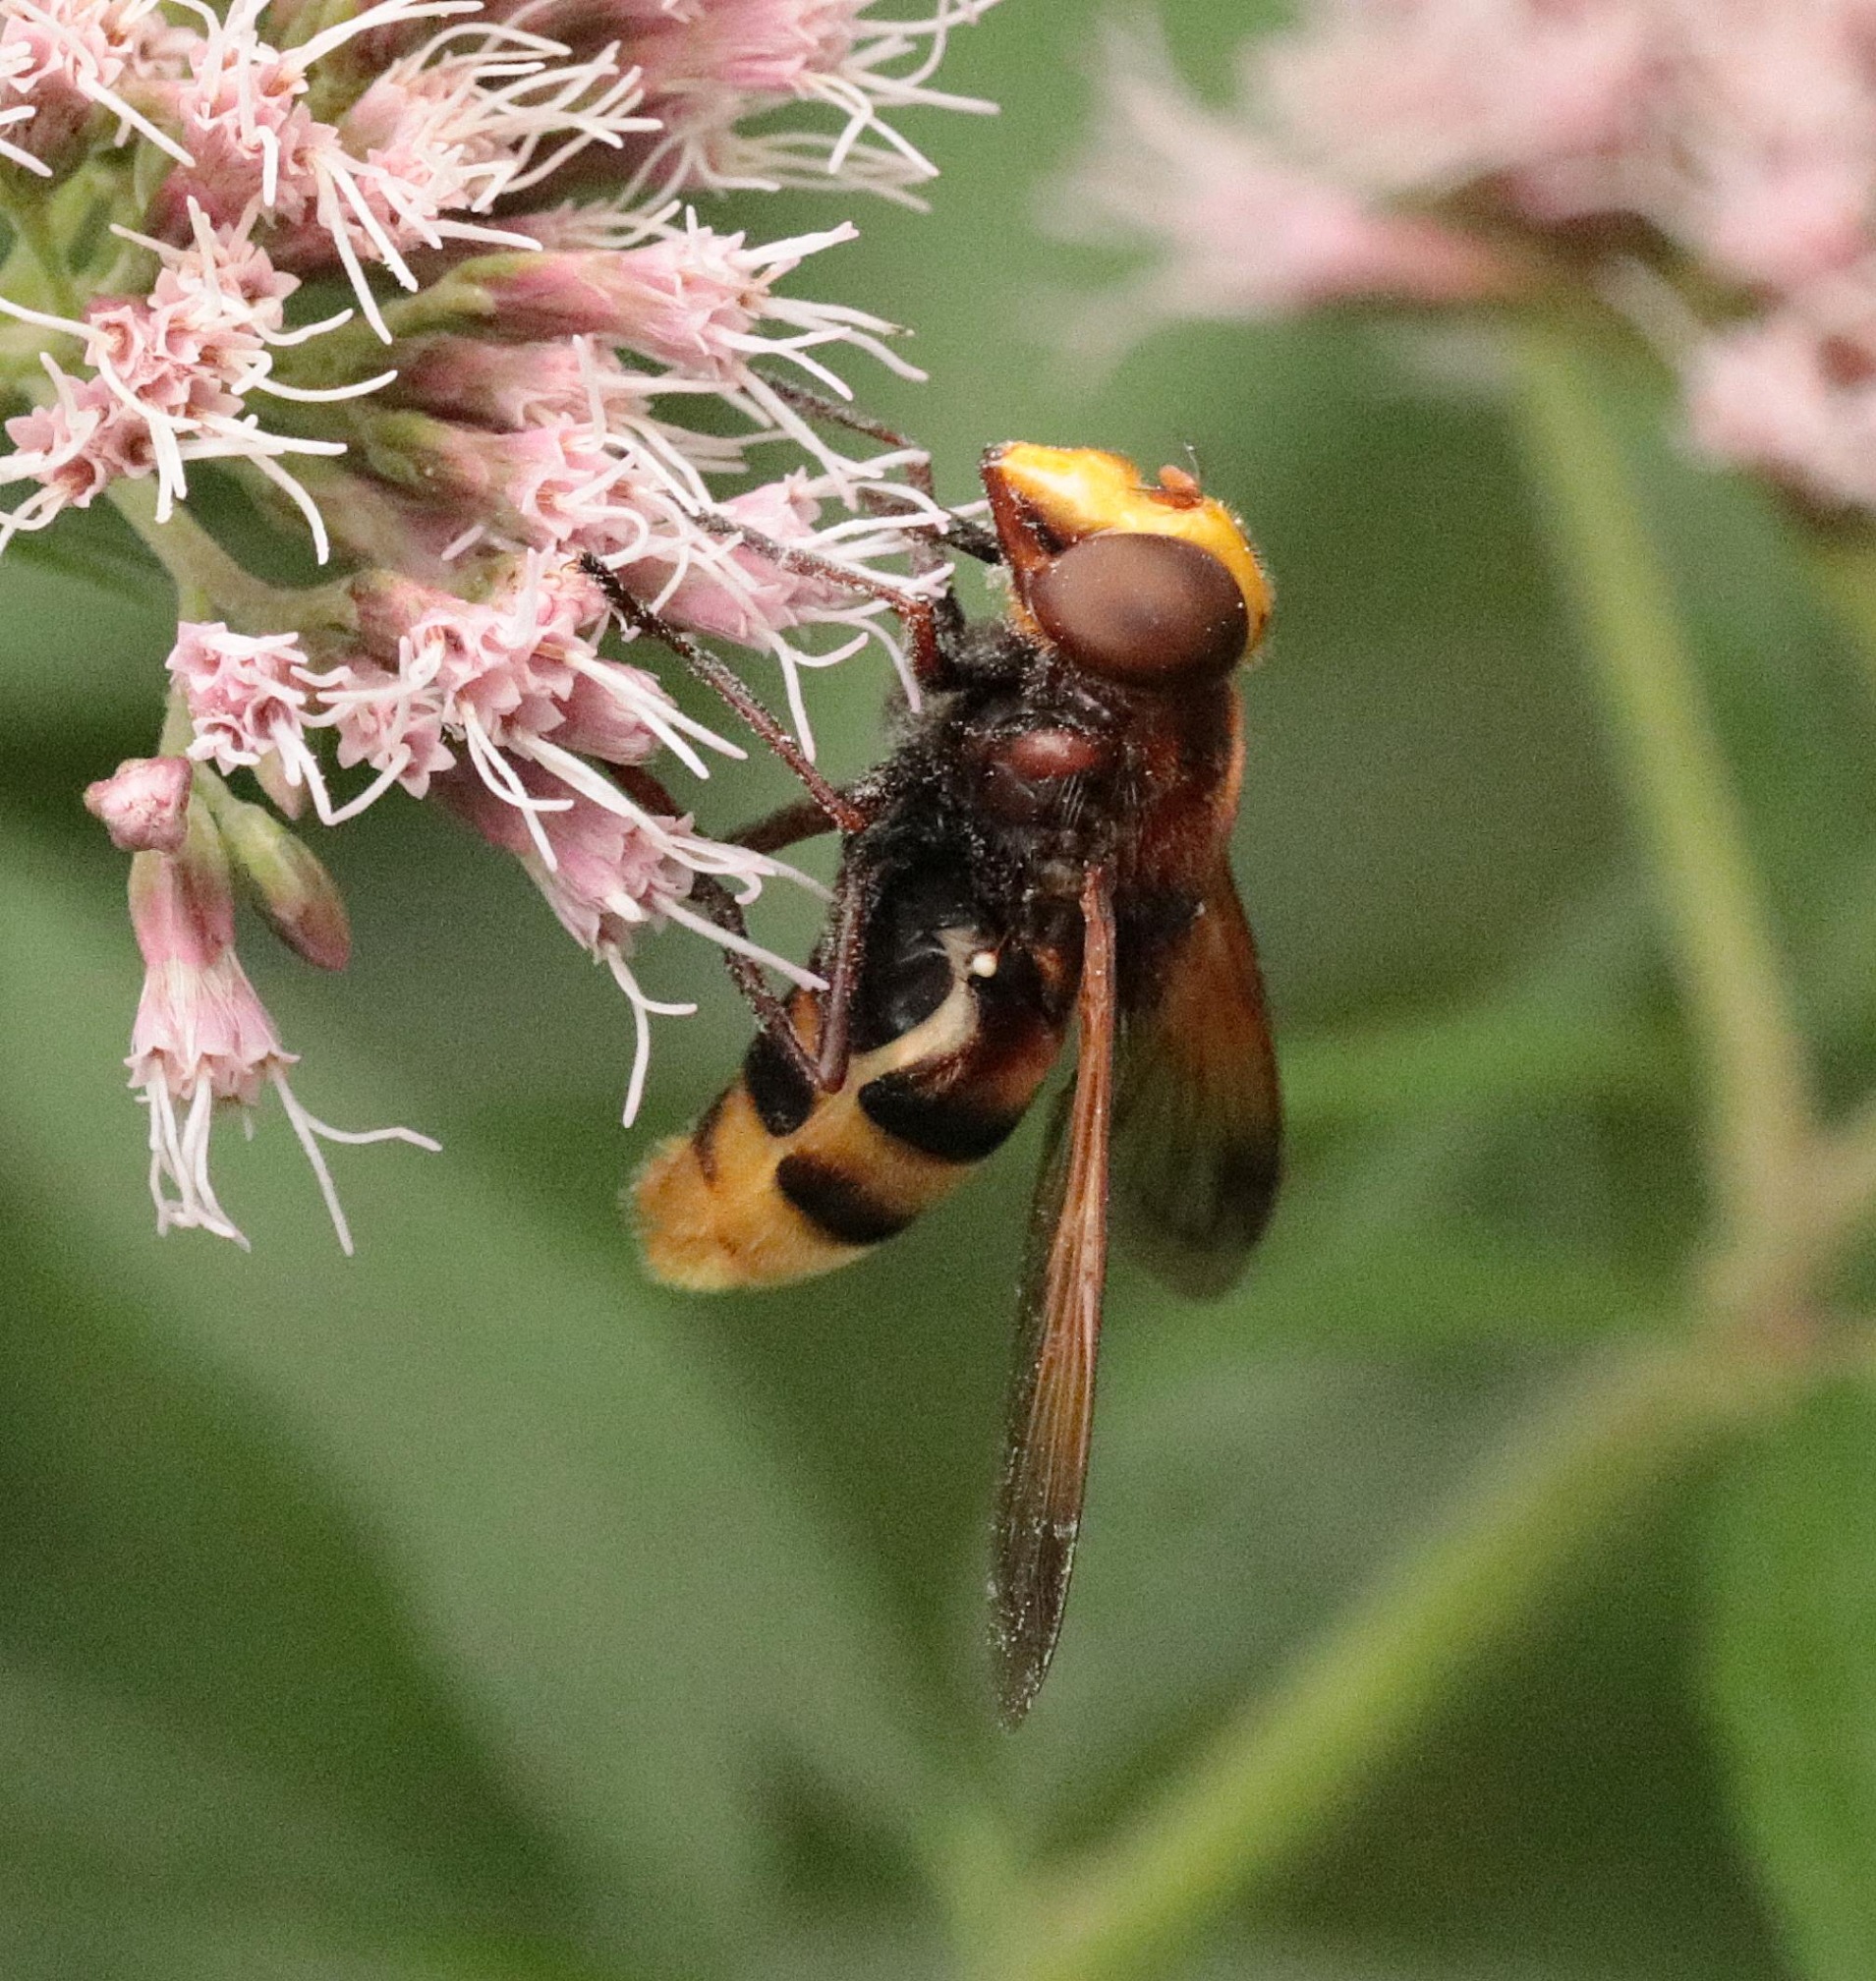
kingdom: Animalia
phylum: Arthropoda
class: Insecta
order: Diptera
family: Syrphidae
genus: Volucella
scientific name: Volucella zonaria
